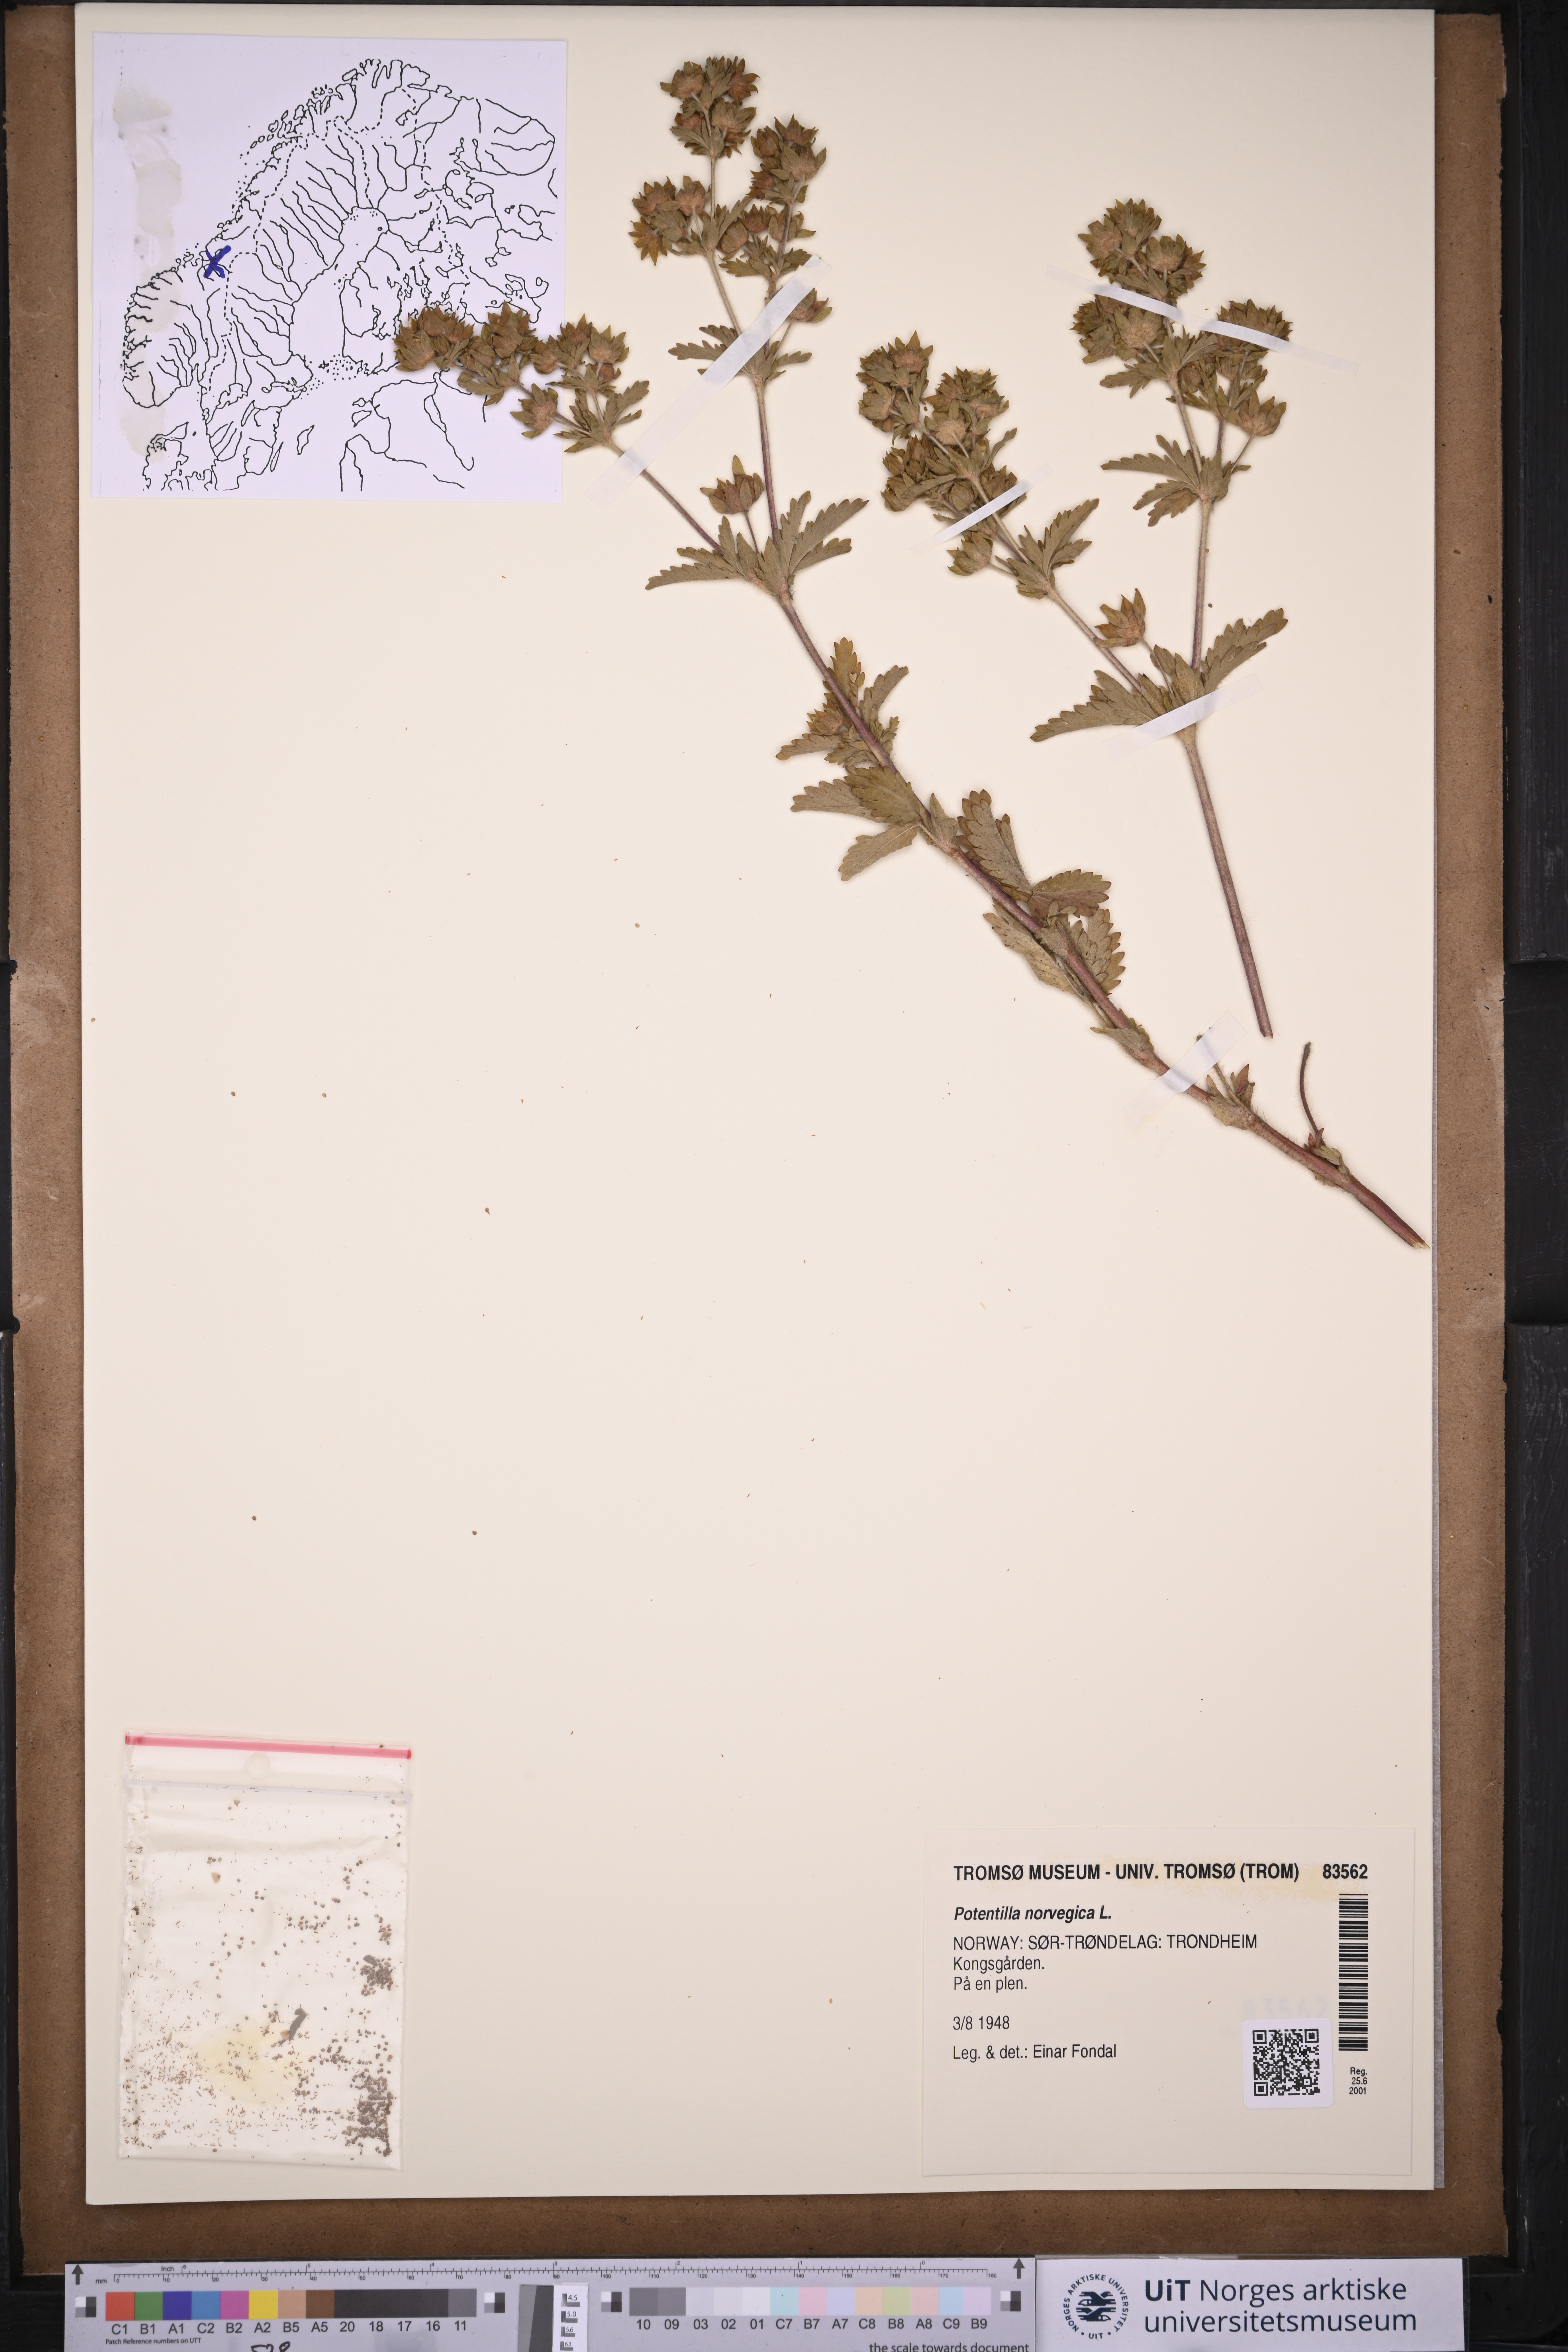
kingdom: Plantae
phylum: Tracheophyta
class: Magnoliopsida
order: Rosales
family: Rosaceae
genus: Potentilla
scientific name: Potentilla norvegica
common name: Ternate-leaved cinquefoil
